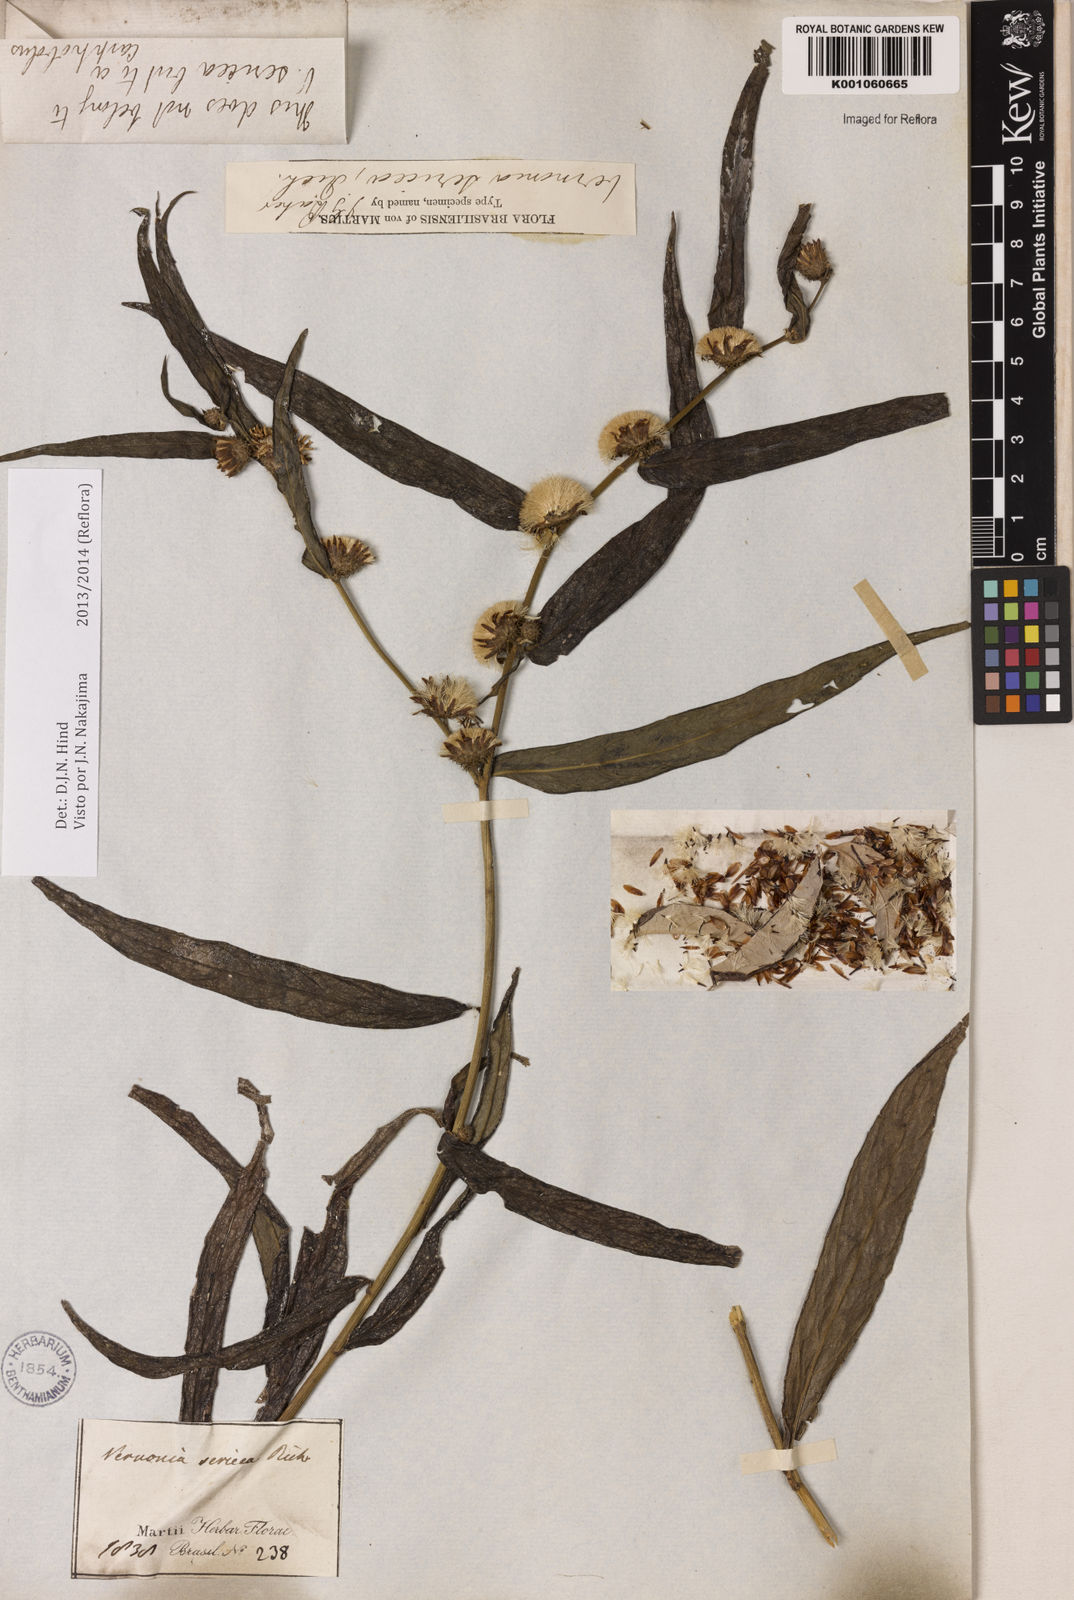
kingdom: Plantae
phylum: Tracheophyta
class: Magnoliopsida
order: Asterales
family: Asteraceae
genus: Lepidaploa
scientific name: Lepidaploa sericea
